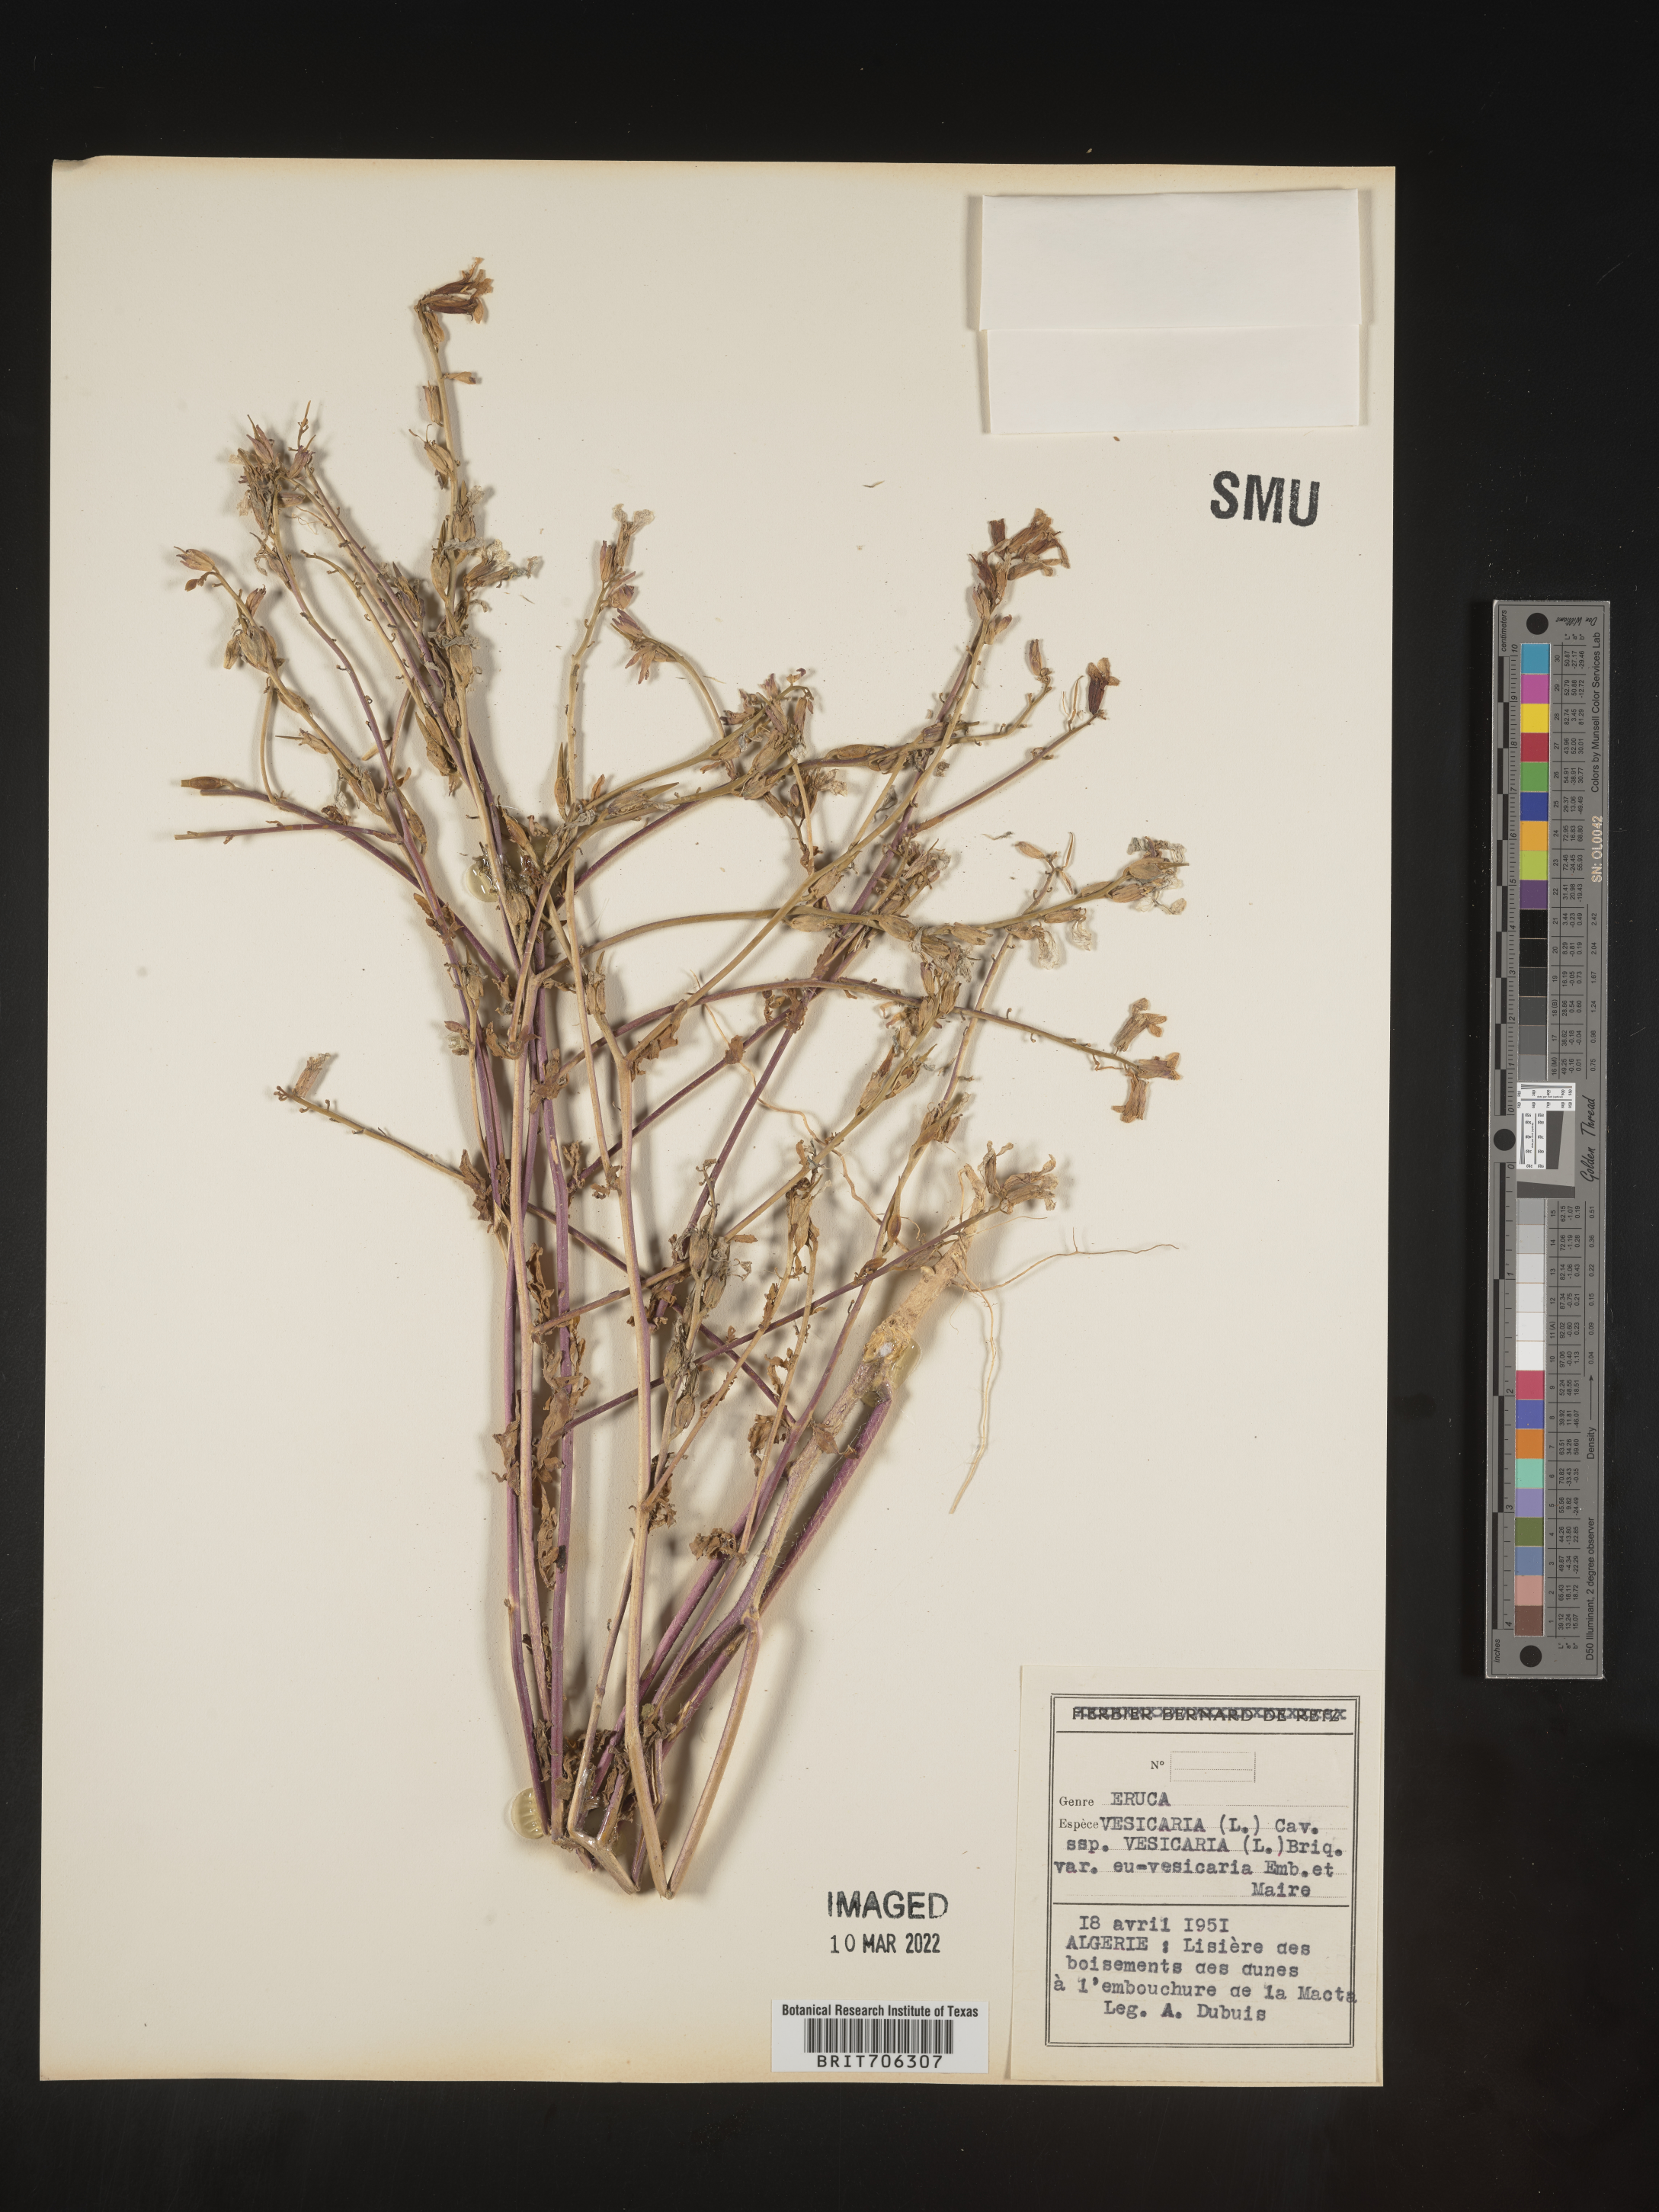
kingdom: Plantae
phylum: Tracheophyta
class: Magnoliopsida
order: Brassicales
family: Brassicaceae
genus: Eruca
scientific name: Eruca
